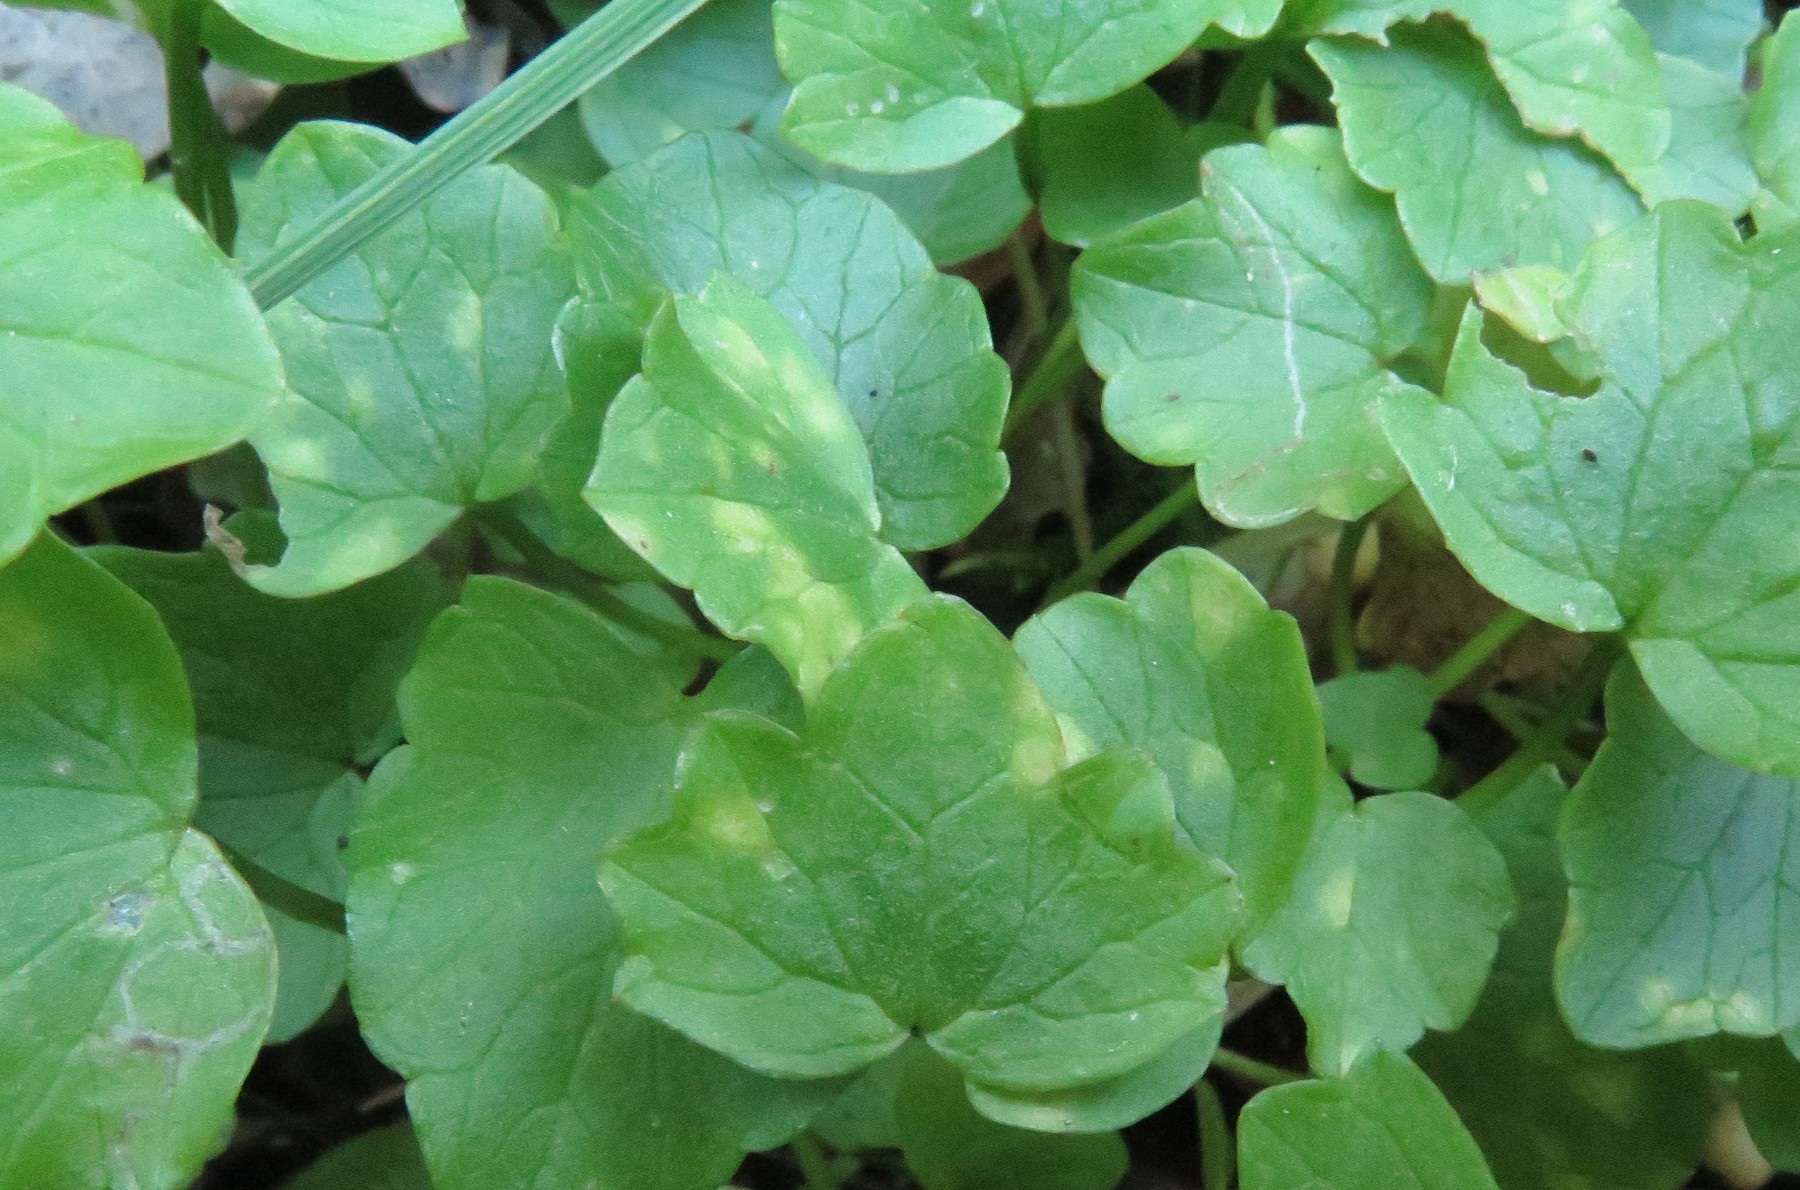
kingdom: Fungi
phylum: Basidiomycota
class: Exobasidiomycetes
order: Entylomatales
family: Entylomataceae
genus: Entyloma
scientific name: Entyloma ficariae
